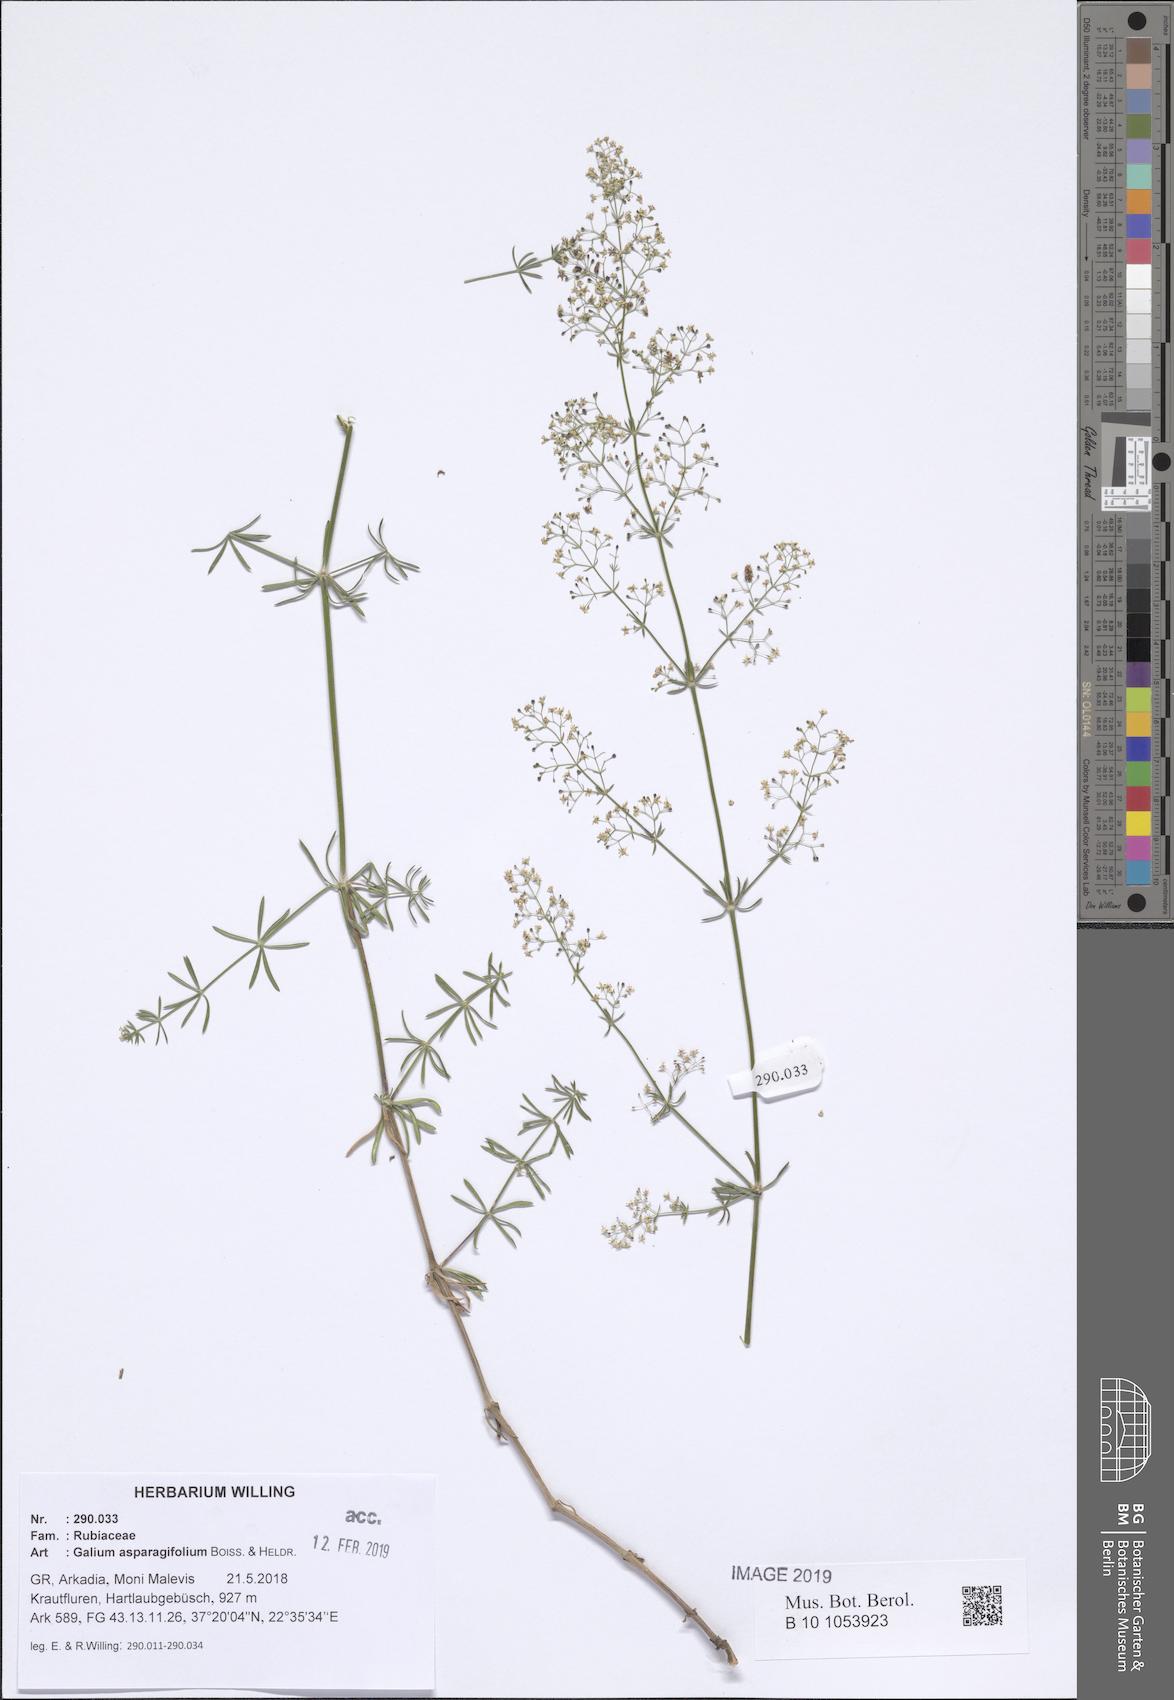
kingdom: Plantae
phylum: Tracheophyta
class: Magnoliopsida
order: Gentianales
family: Rubiaceae
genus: Galium
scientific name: Galium asparagifolium
